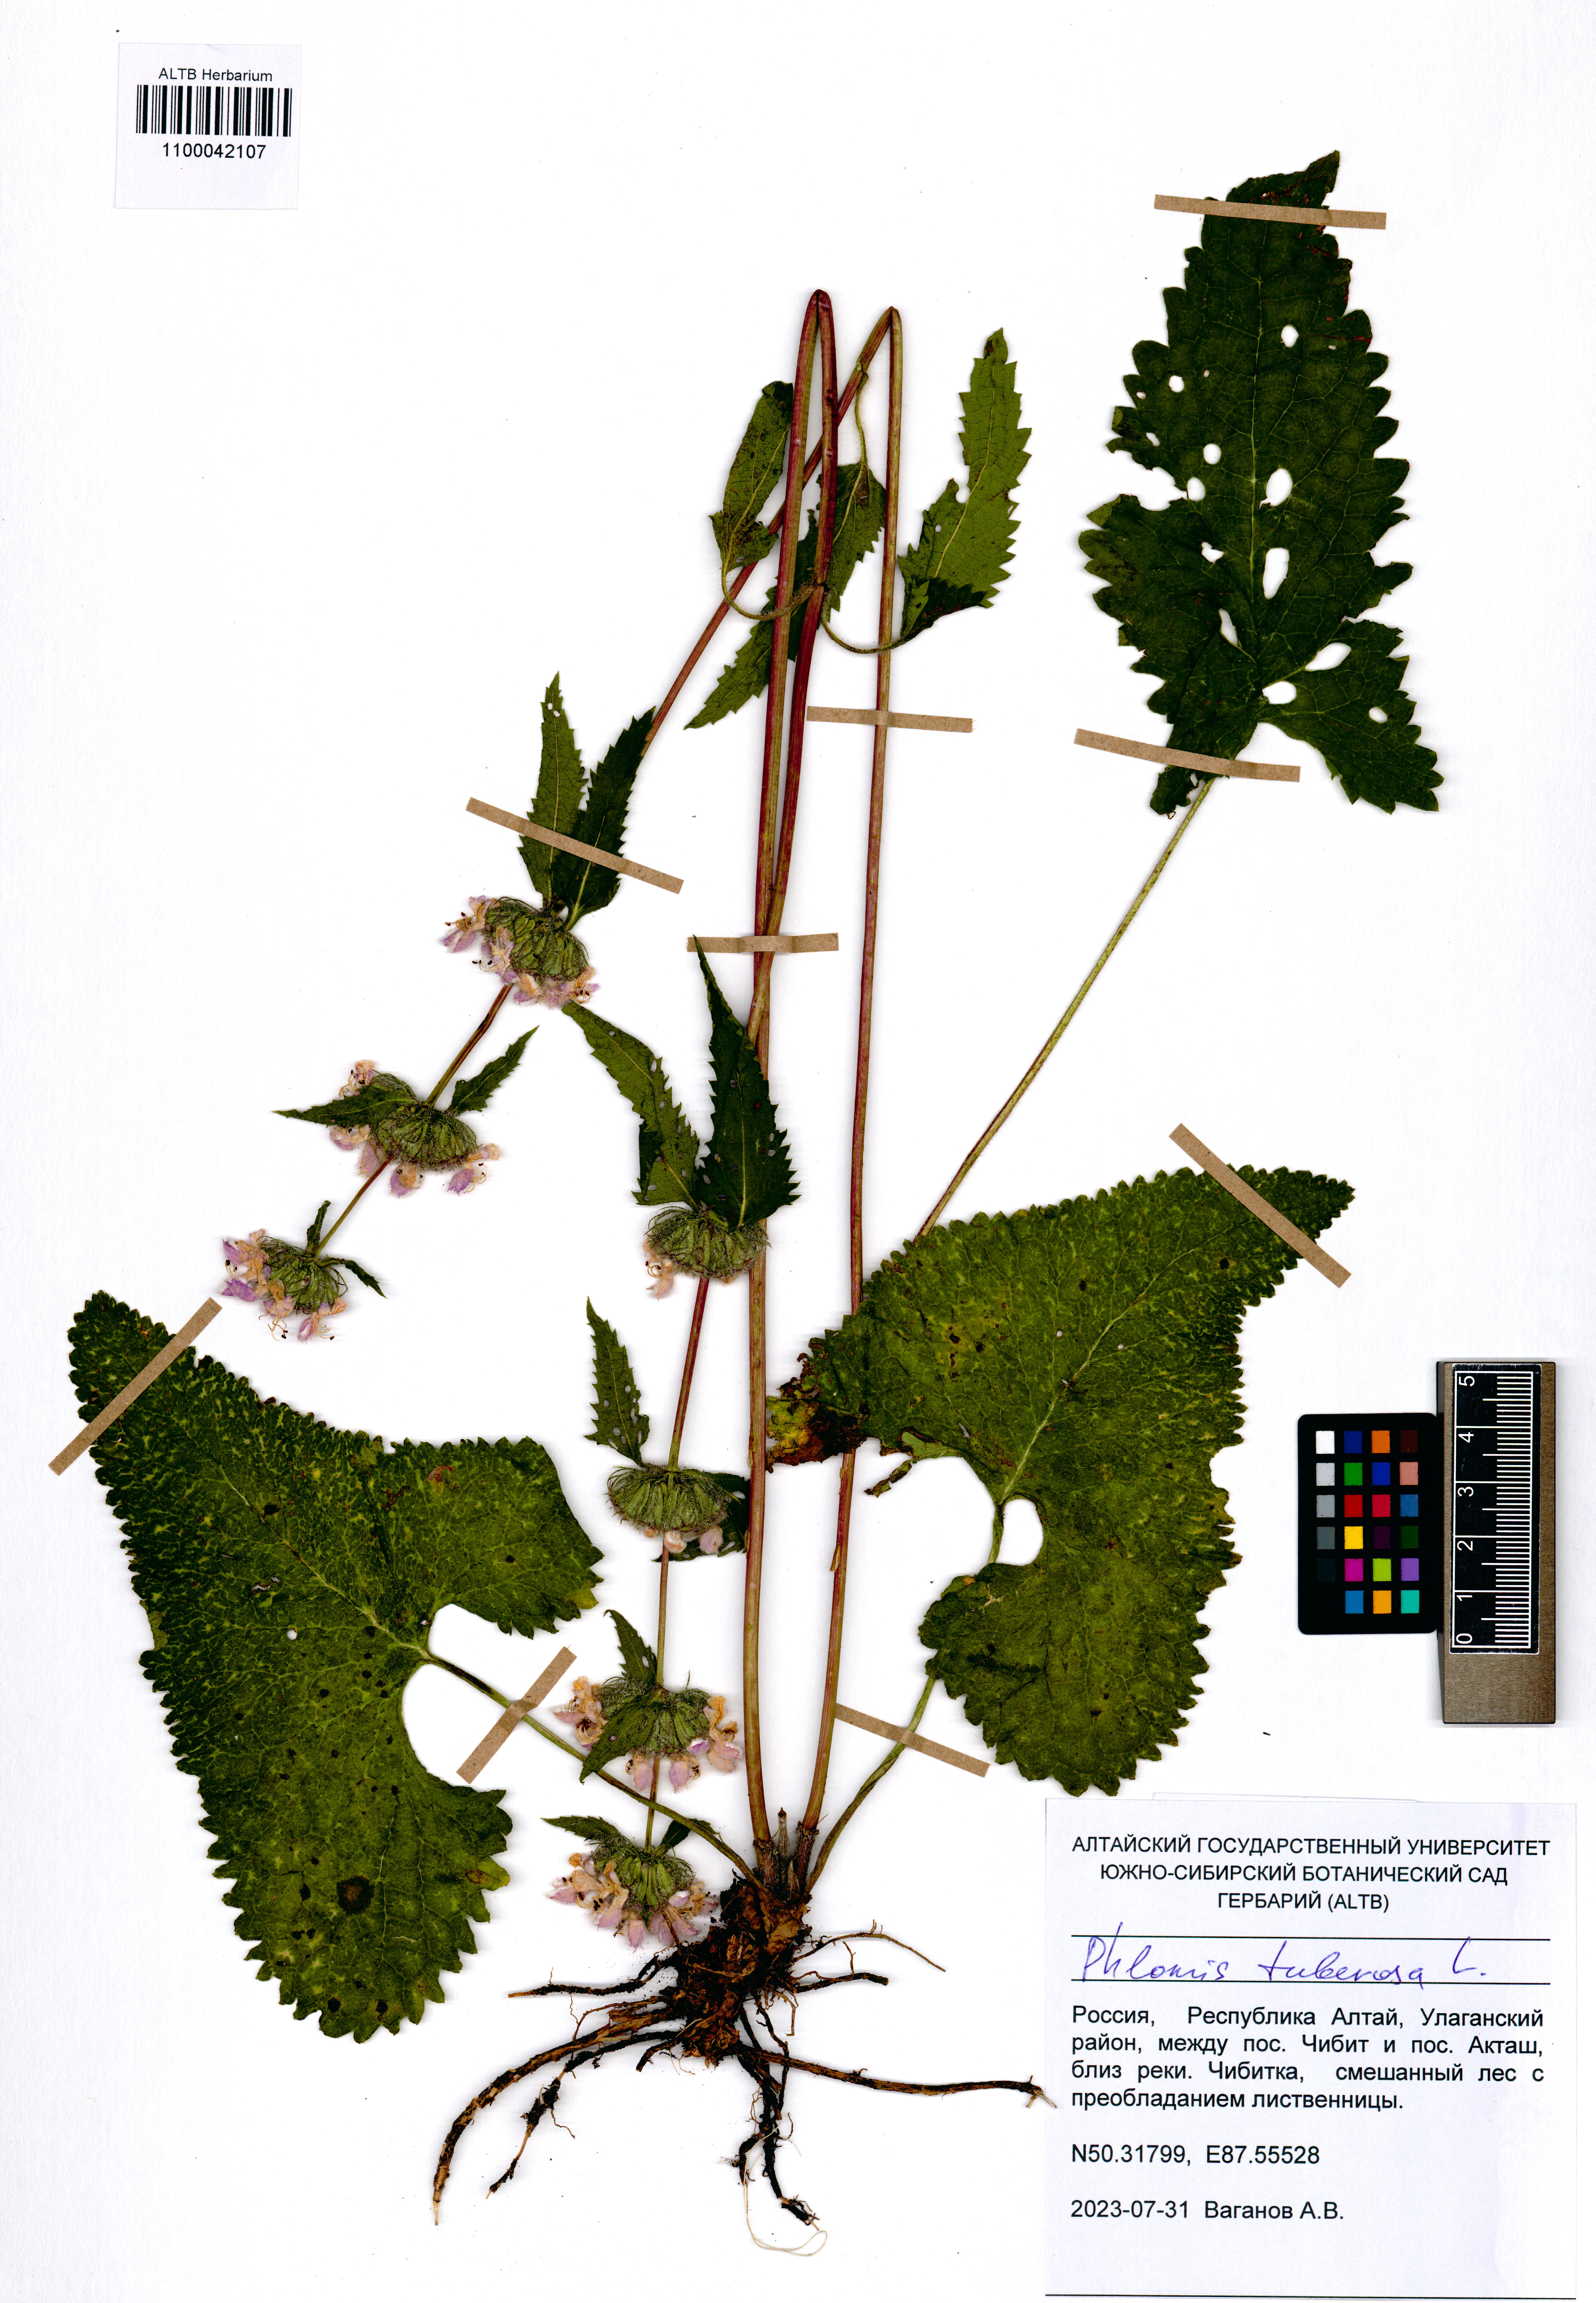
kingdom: Plantae
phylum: Tracheophyta
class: Magnoliopsida
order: Lamiales
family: Lamiaceae
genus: Phlomoides
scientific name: Phlomoides tuberosa
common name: Tuberous jerusalem sage
